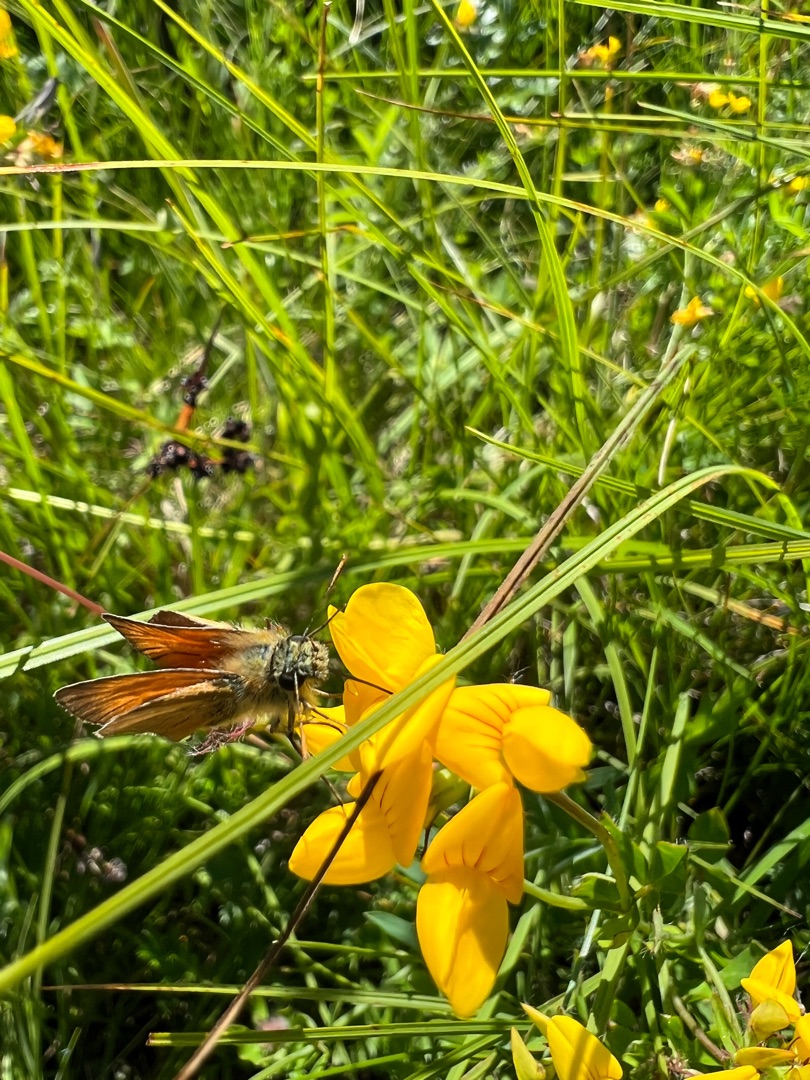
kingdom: Animalia
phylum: Arthropoda
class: Insecta
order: Lepidoptera
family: Hesperiidae
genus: Thymelicus
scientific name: Thymelicus sylvestris
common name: Skråstregbredpande
